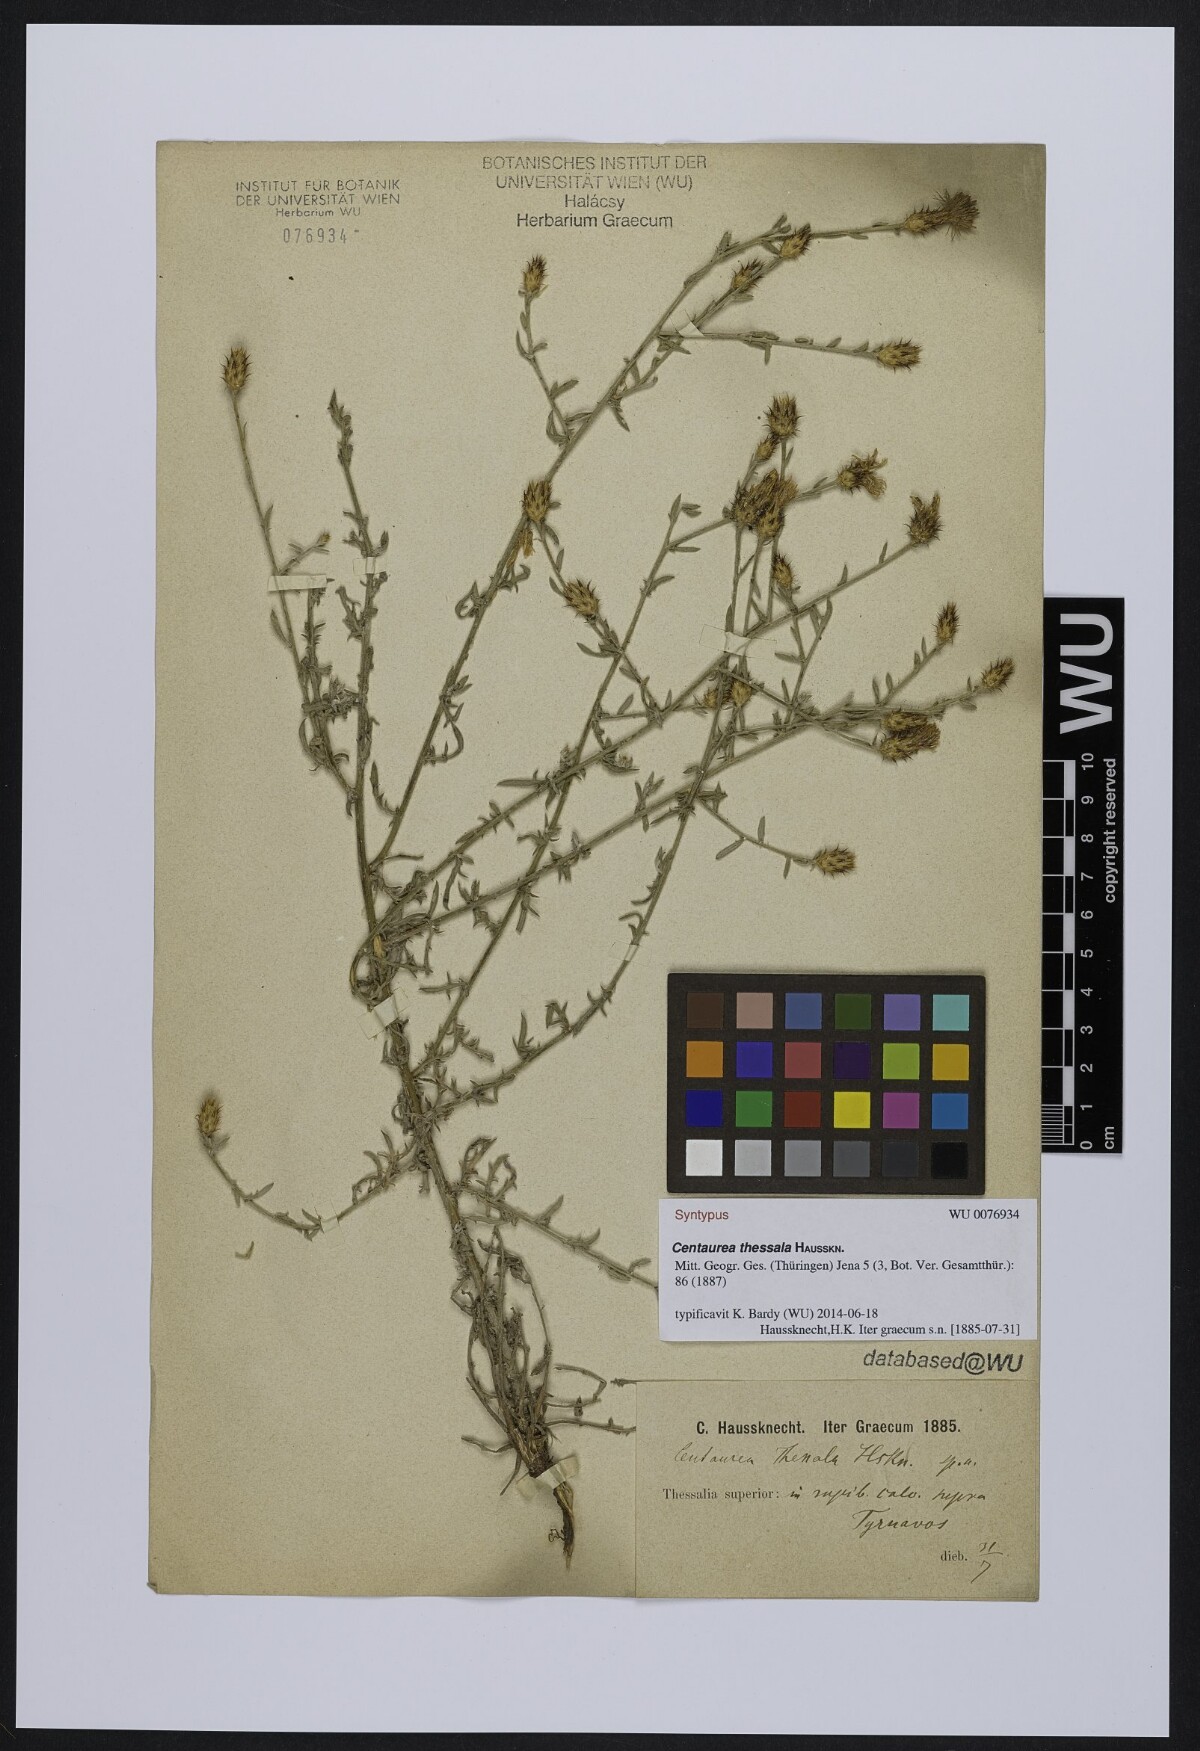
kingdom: Plantae
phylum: Tracheophyta
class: Magnoliopsida
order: Asterales
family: Asteraceae
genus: Centaurea
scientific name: Centaurea thessala
